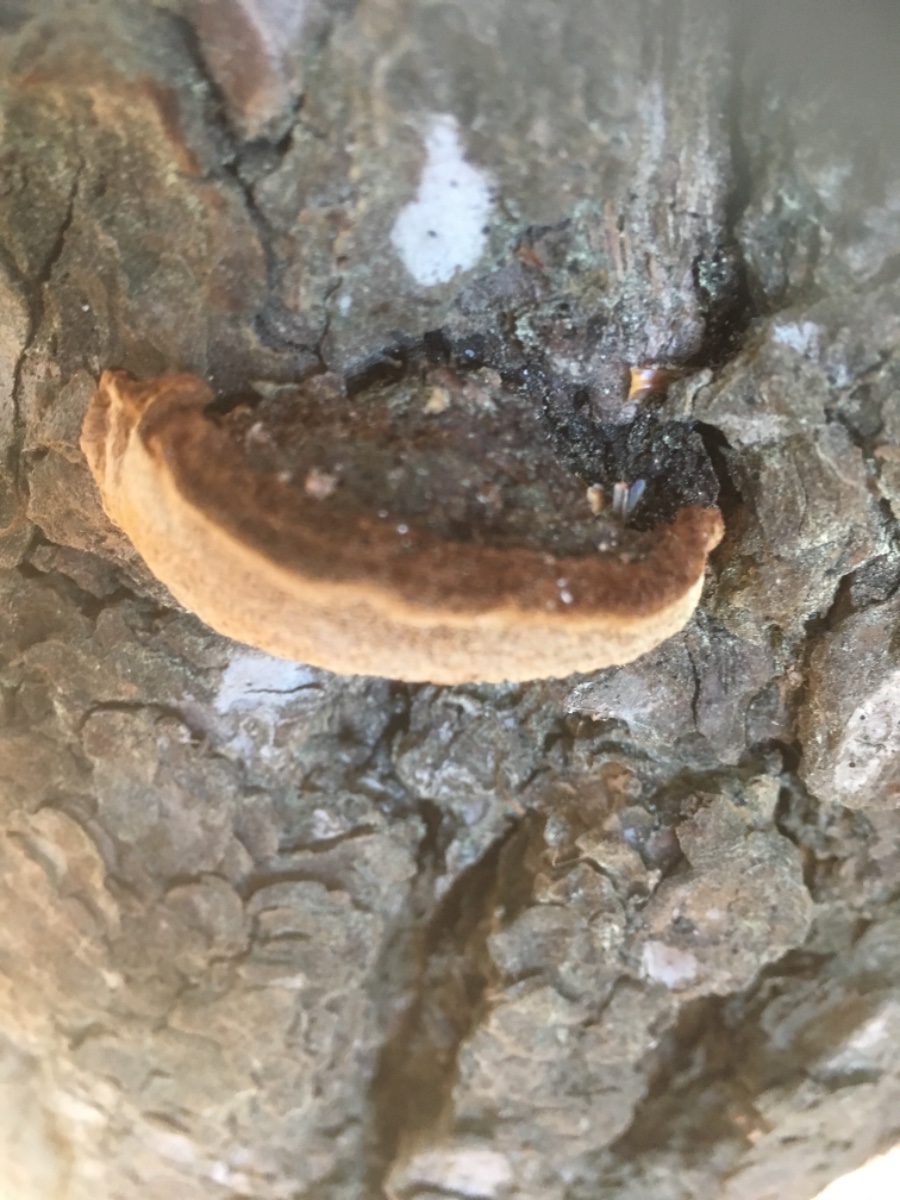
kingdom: Fungi
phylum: Basidiomycota
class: Agaricomycetes
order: Hymenochaetales
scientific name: Hymenochaetales
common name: børstesvampordenen
